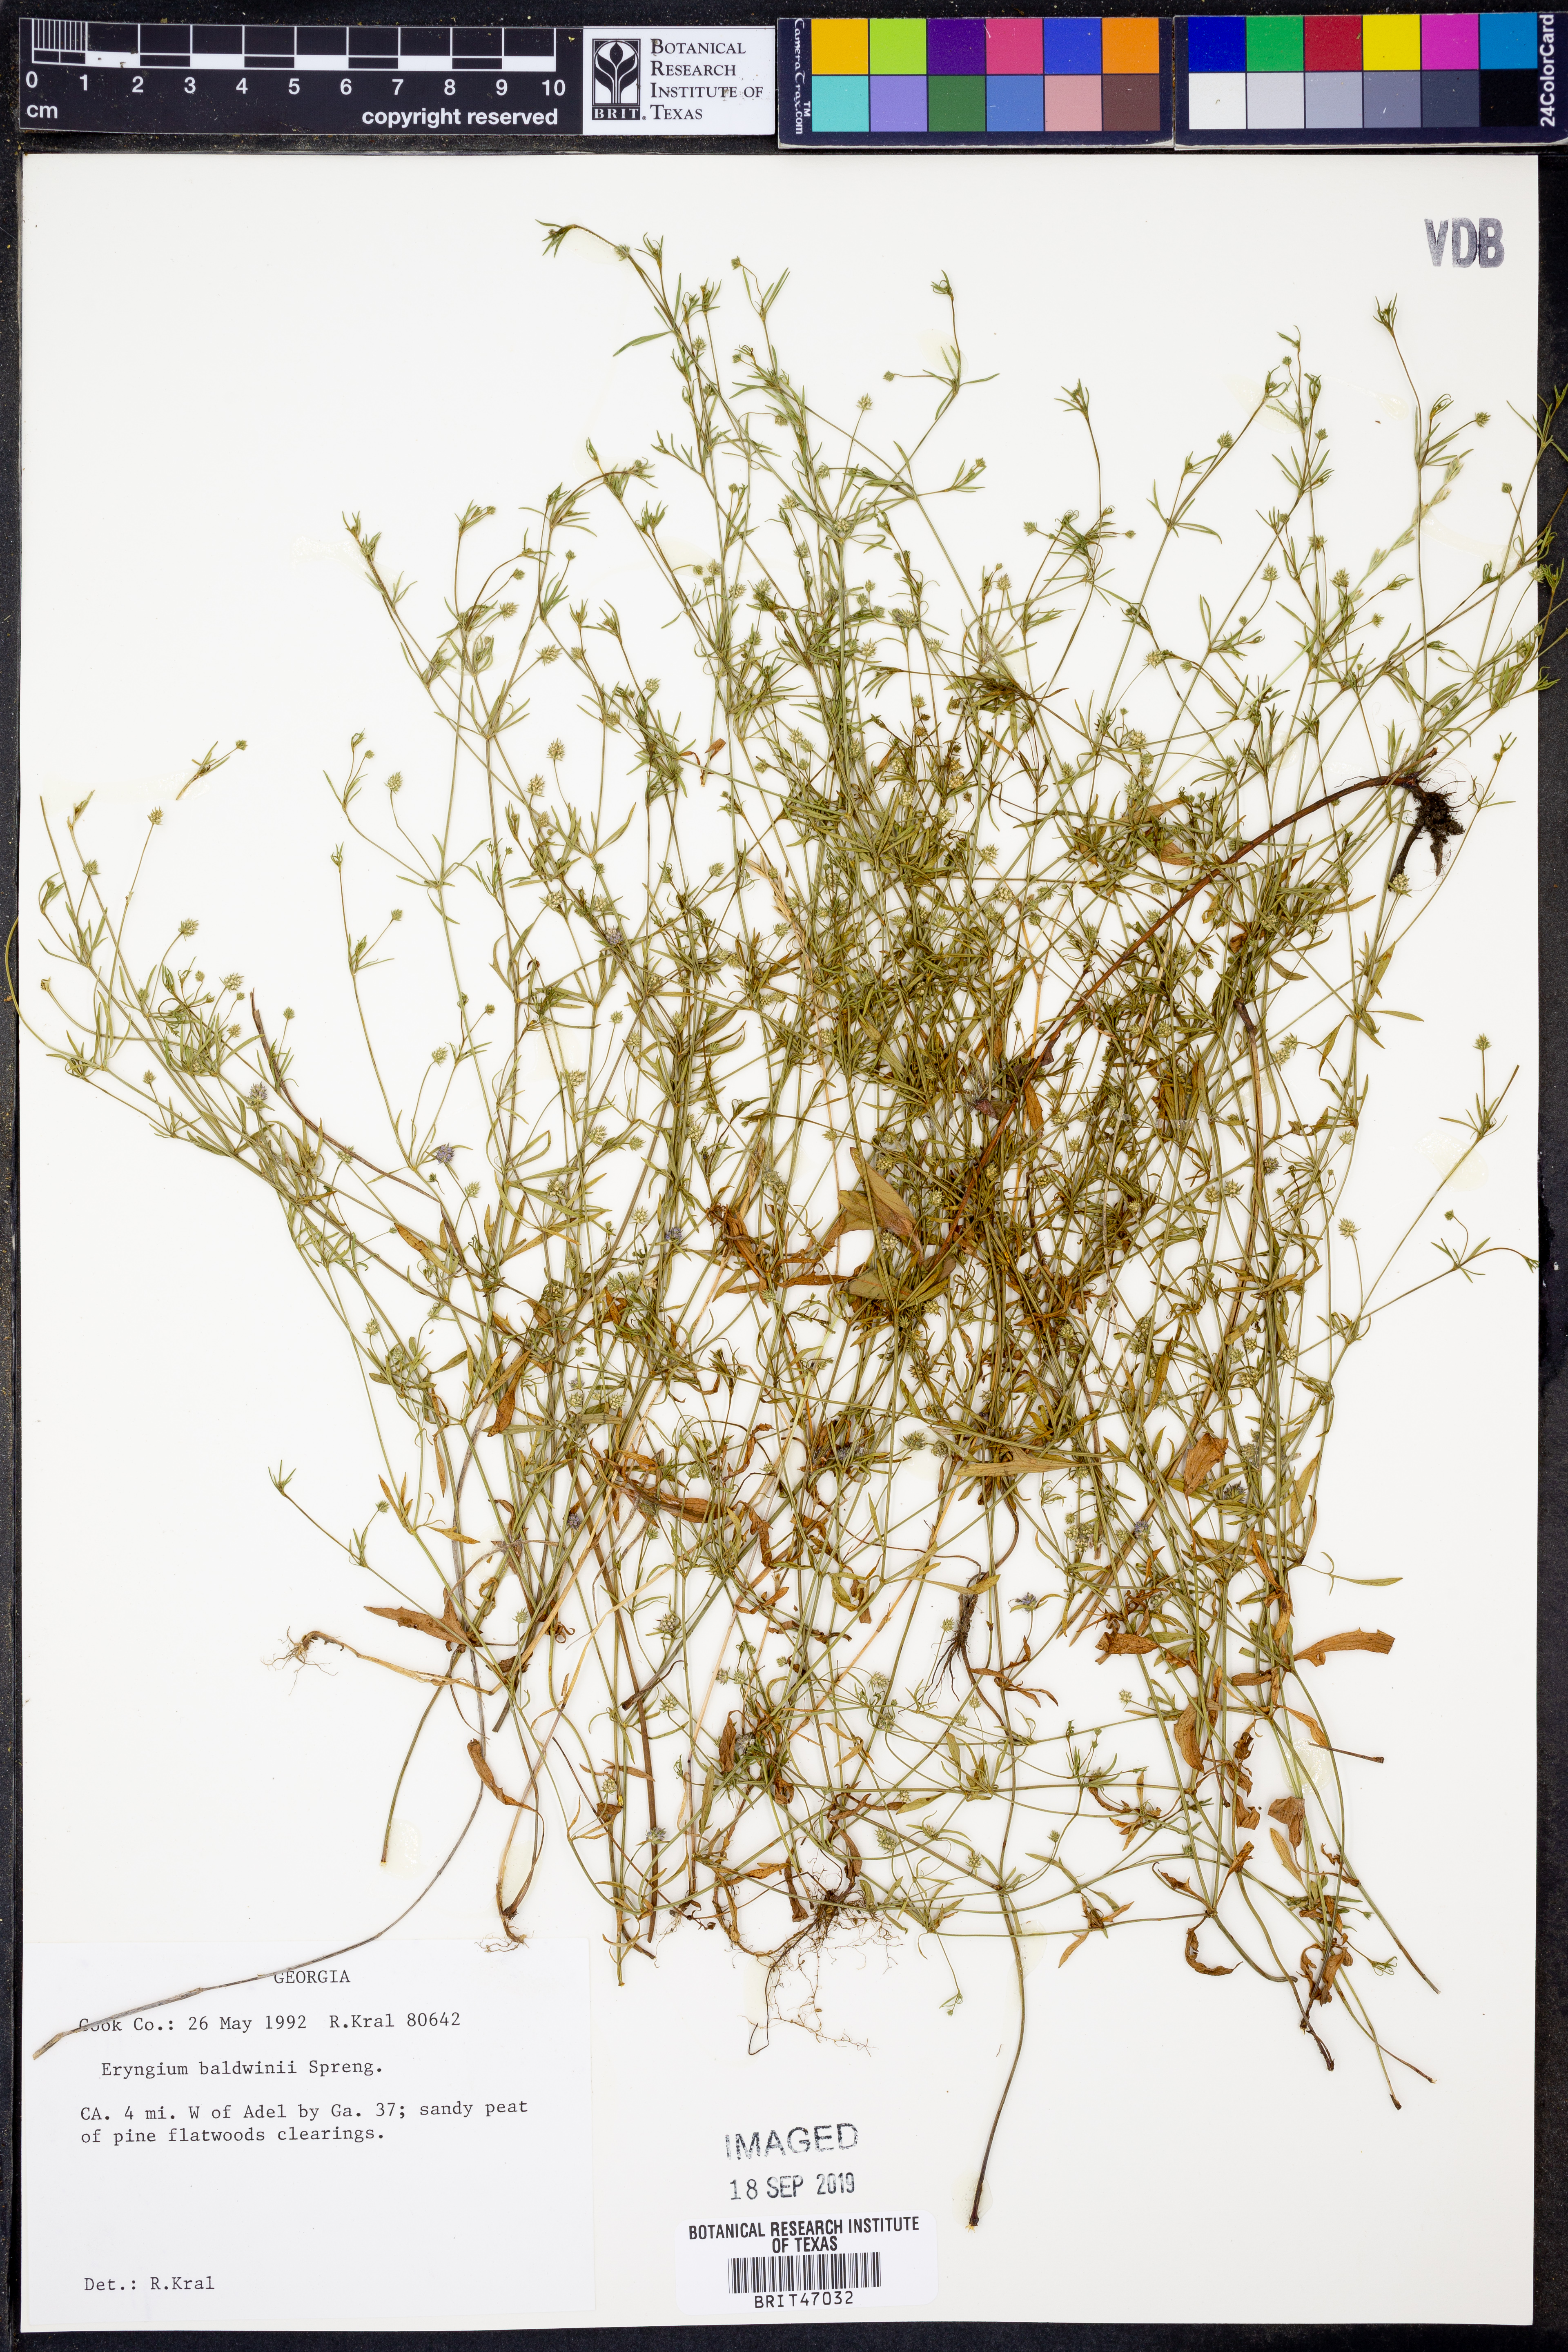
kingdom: Plantae
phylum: Tracheophyta
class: Magnoliopsida
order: Apiales
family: Apiaceae
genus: Eryngium
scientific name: Eryngium baldwinii
